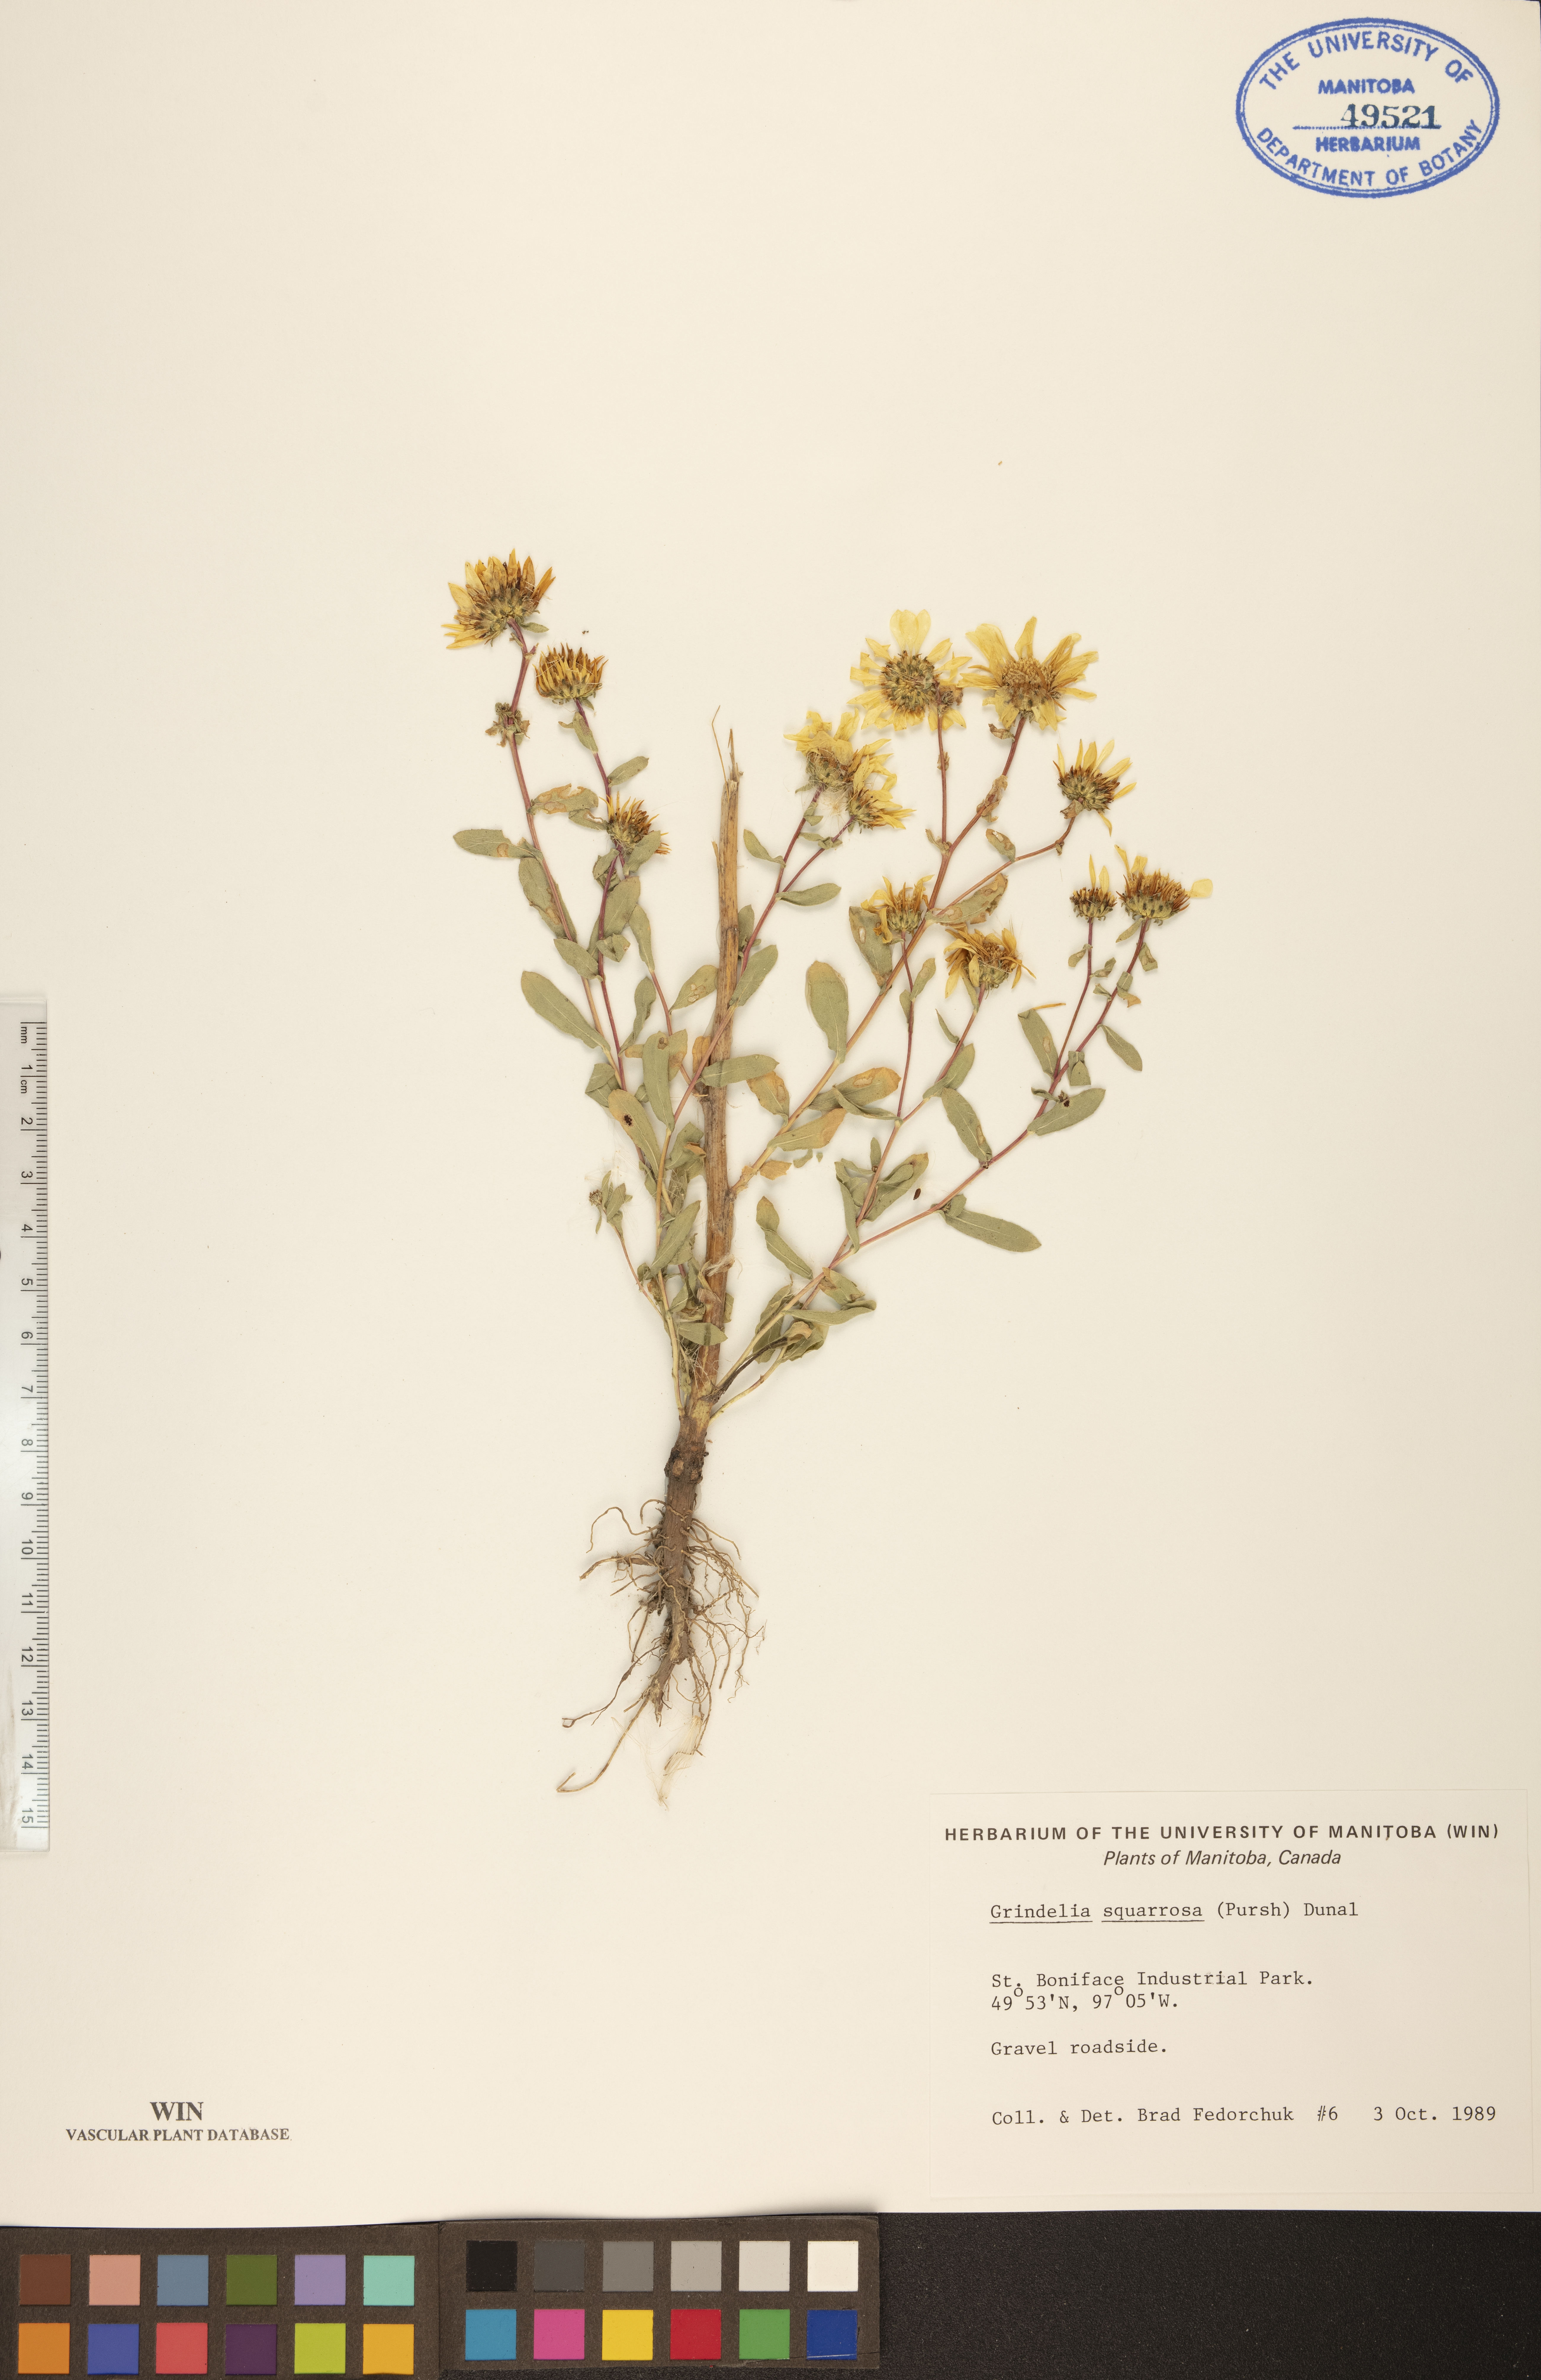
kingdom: Plantae
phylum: Tracheophyta
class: Magnoliopsida
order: Asterales
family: Asteraceae
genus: Grindelia
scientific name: Grindelia squarrosa
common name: Curly-cup gumweed
